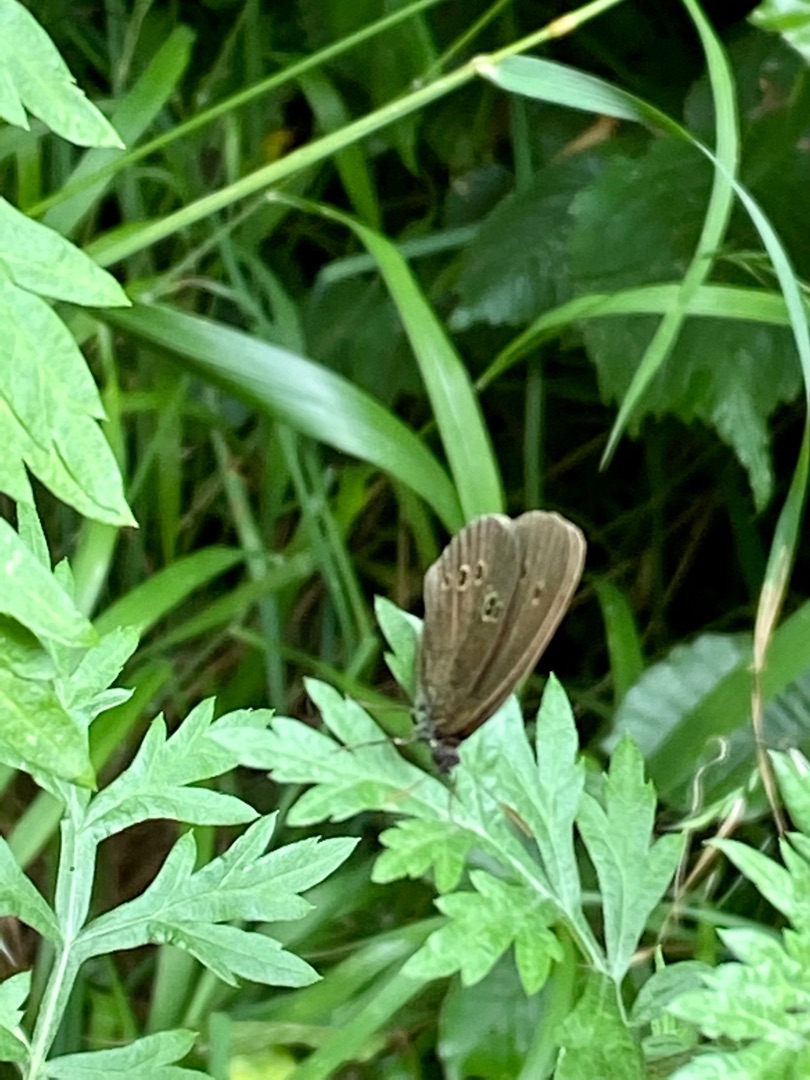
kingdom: Animalia
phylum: Arthropoda
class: Insecta
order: Lepidoptera
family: Nymphalidae
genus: Aphantopus
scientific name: Aphantopus hyperantus
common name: Engrandøje
